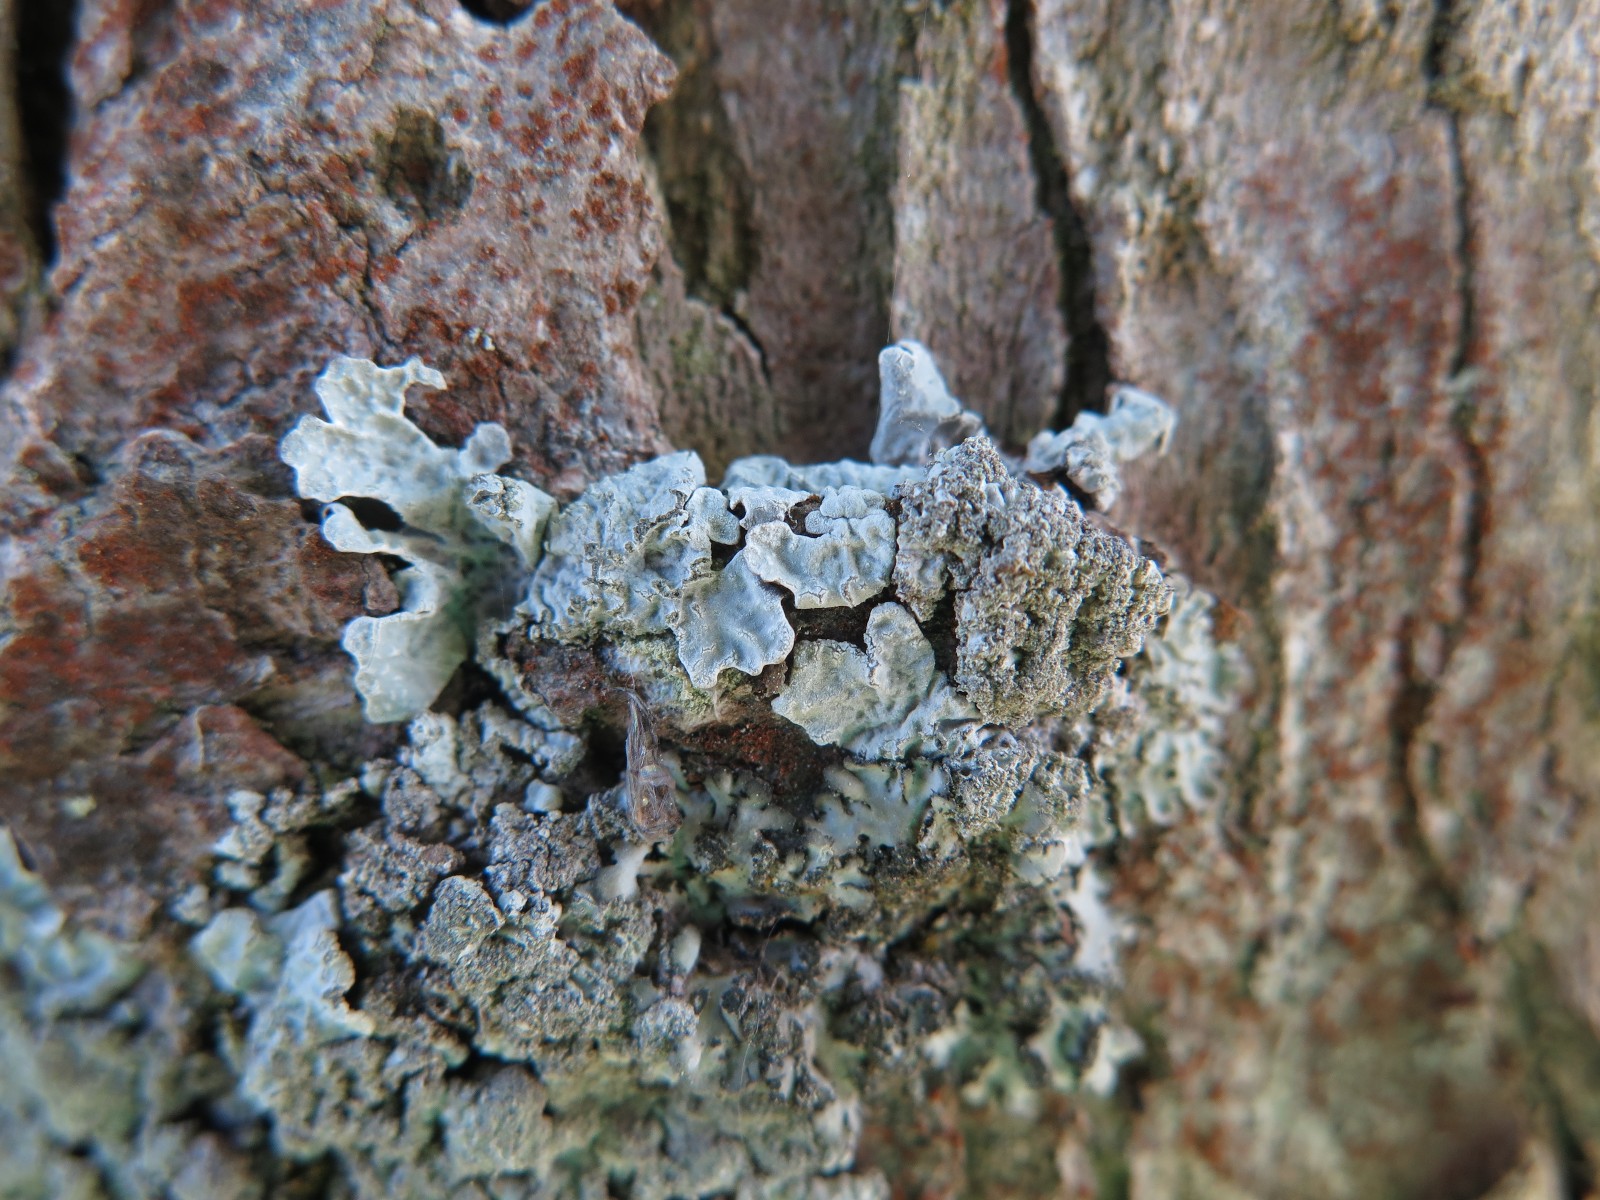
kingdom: Fungi
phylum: Ascomycota
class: Lecanoromycetes
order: Lecanorales
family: Parmeliaceae
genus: Parmelia
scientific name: Parmelia sulcata
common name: rynket skållav
